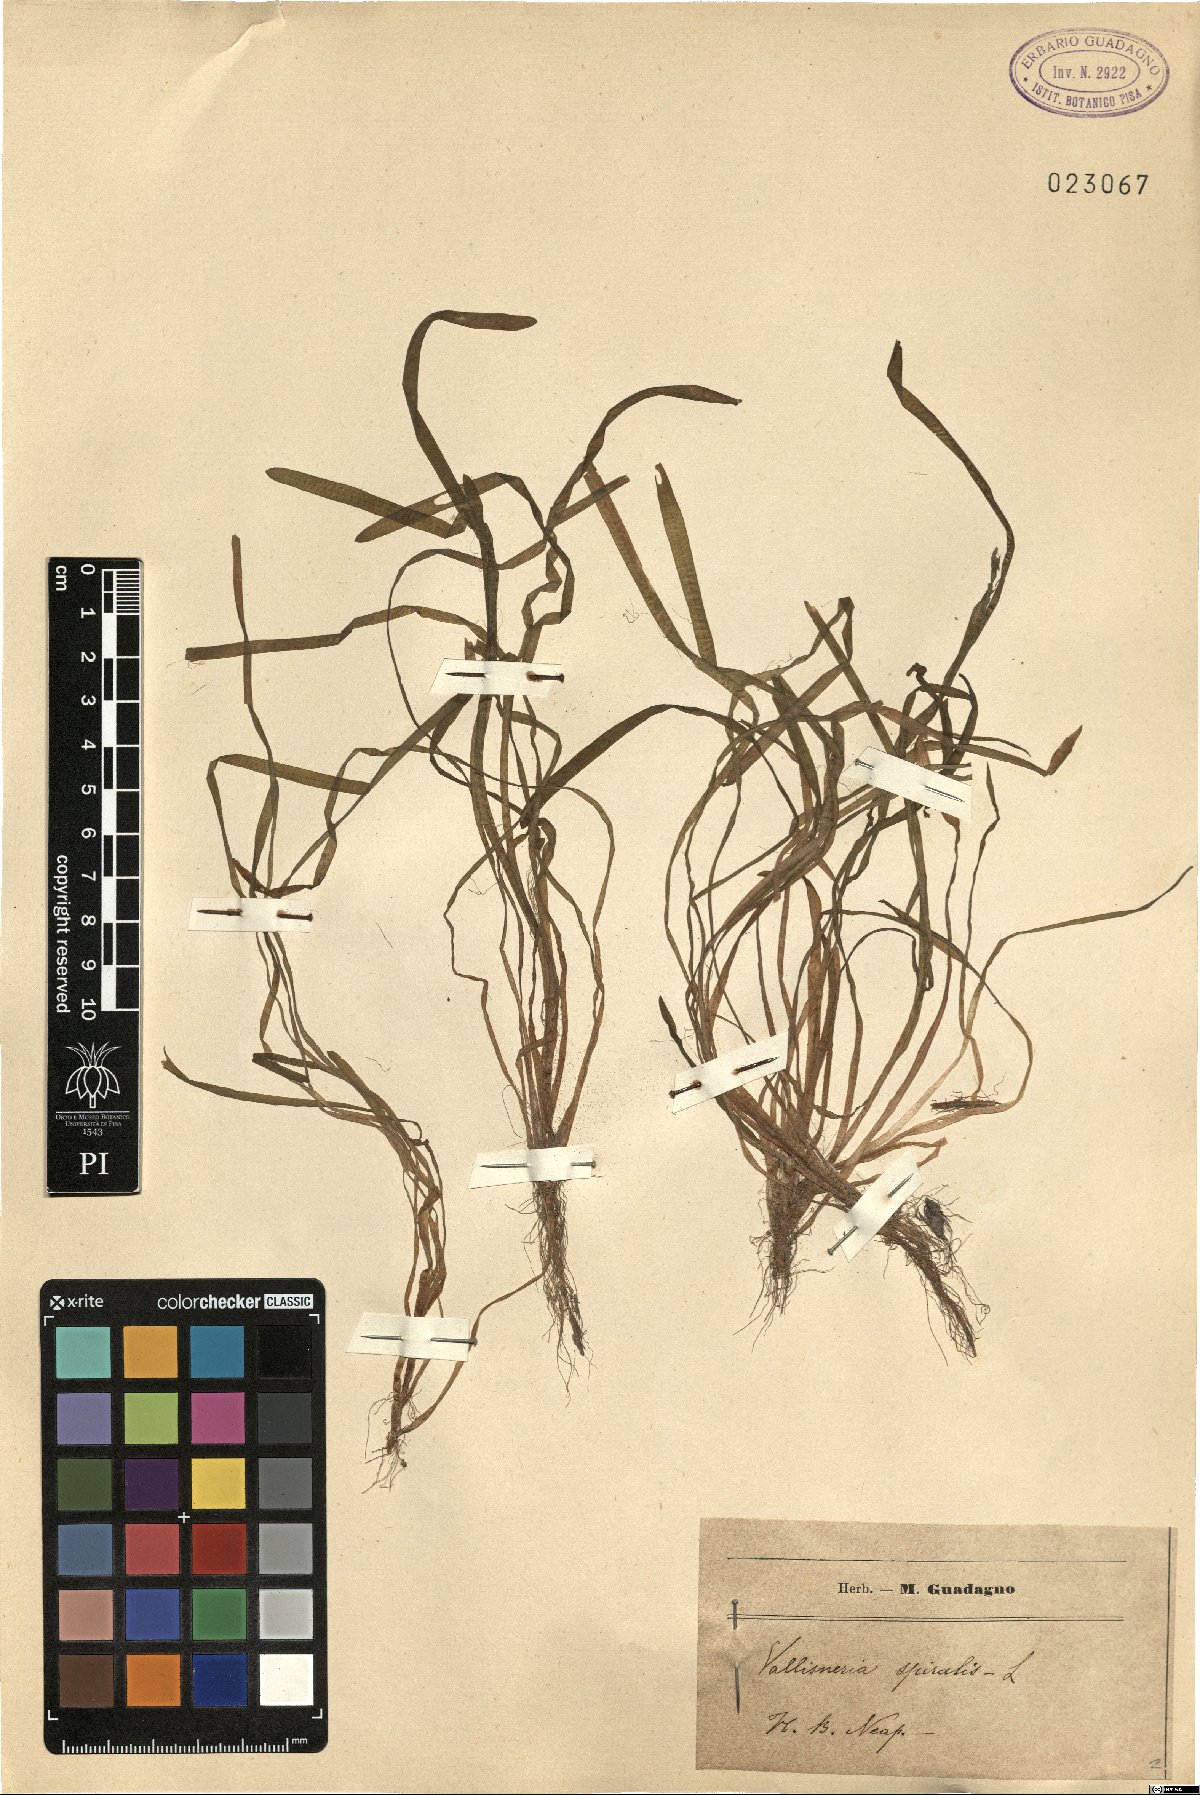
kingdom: Plantae
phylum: Tracheophyta
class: Liliopsida
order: Alismatales
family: Hydrocharitaceae
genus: Vallisneria
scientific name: Vallisneria spiralis
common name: Tapegrass
